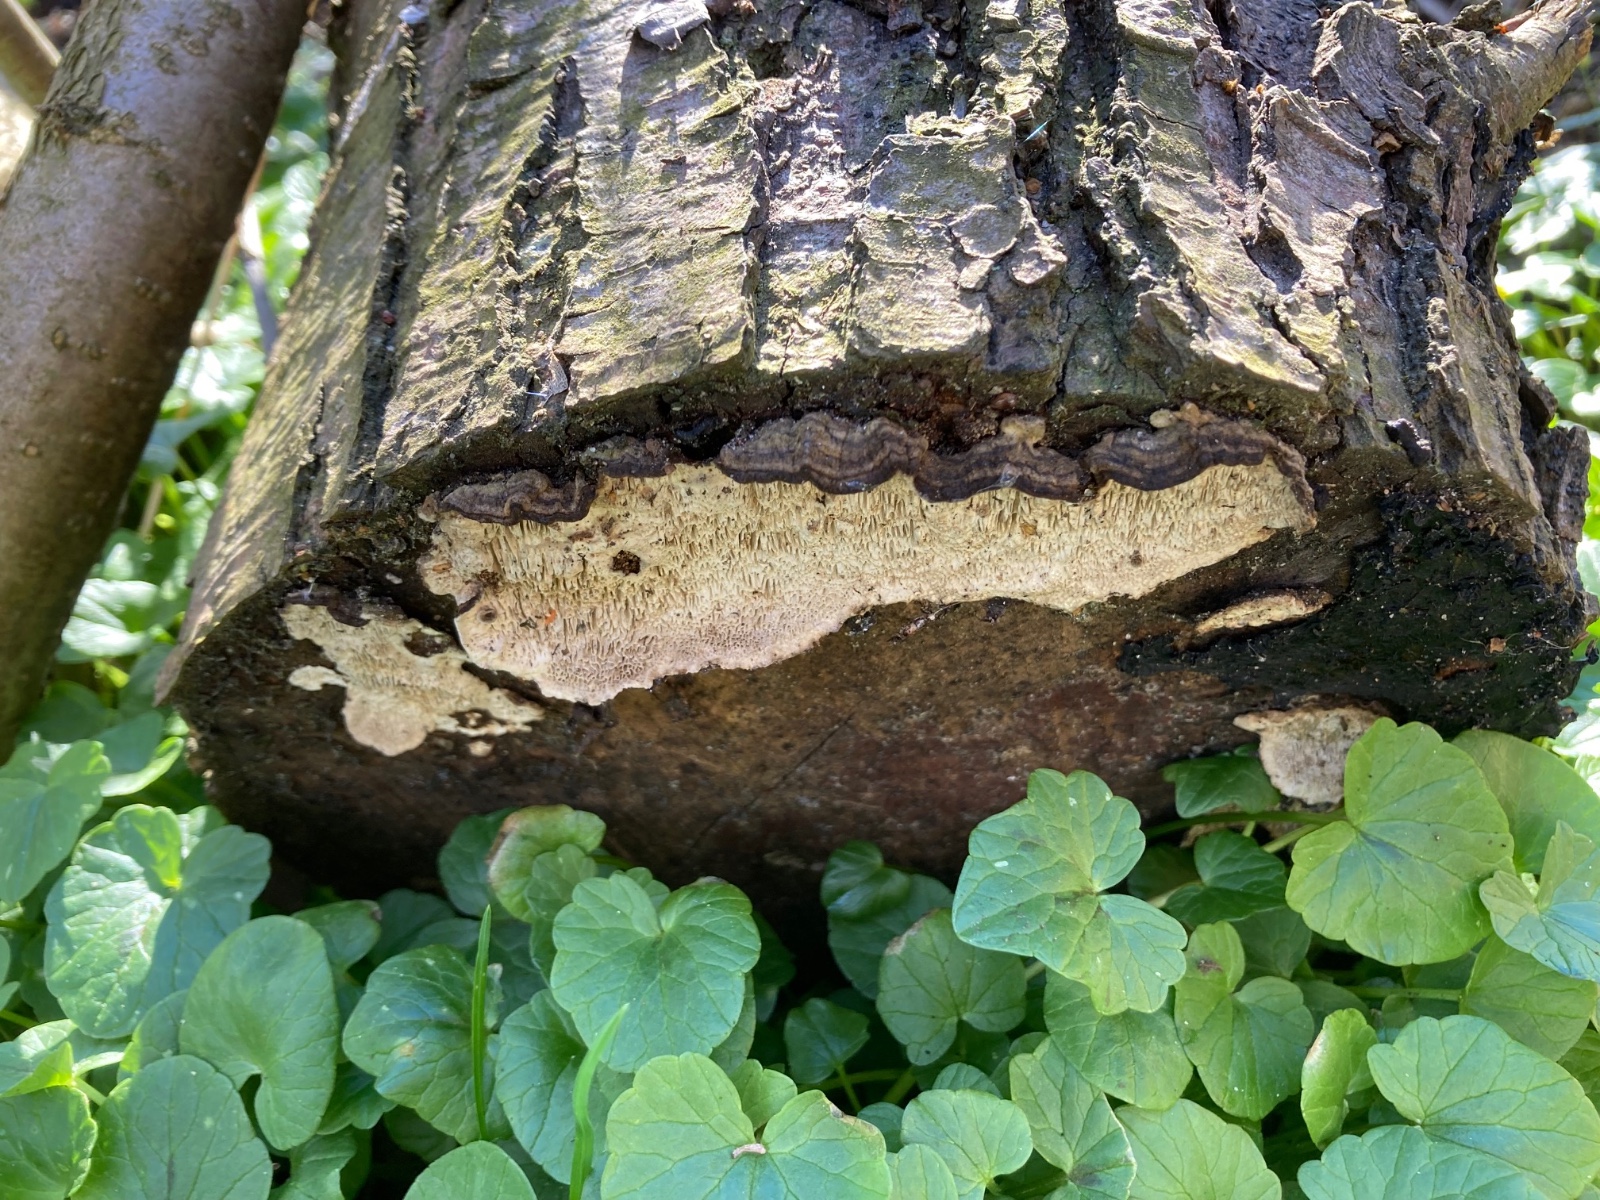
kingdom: Fungi
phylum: Basidiomycota
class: Agaricomycetes
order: Polyporales
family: Polyporaceae
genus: Podofomes
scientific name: Podofomes mollis
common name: blød begporesvamp
